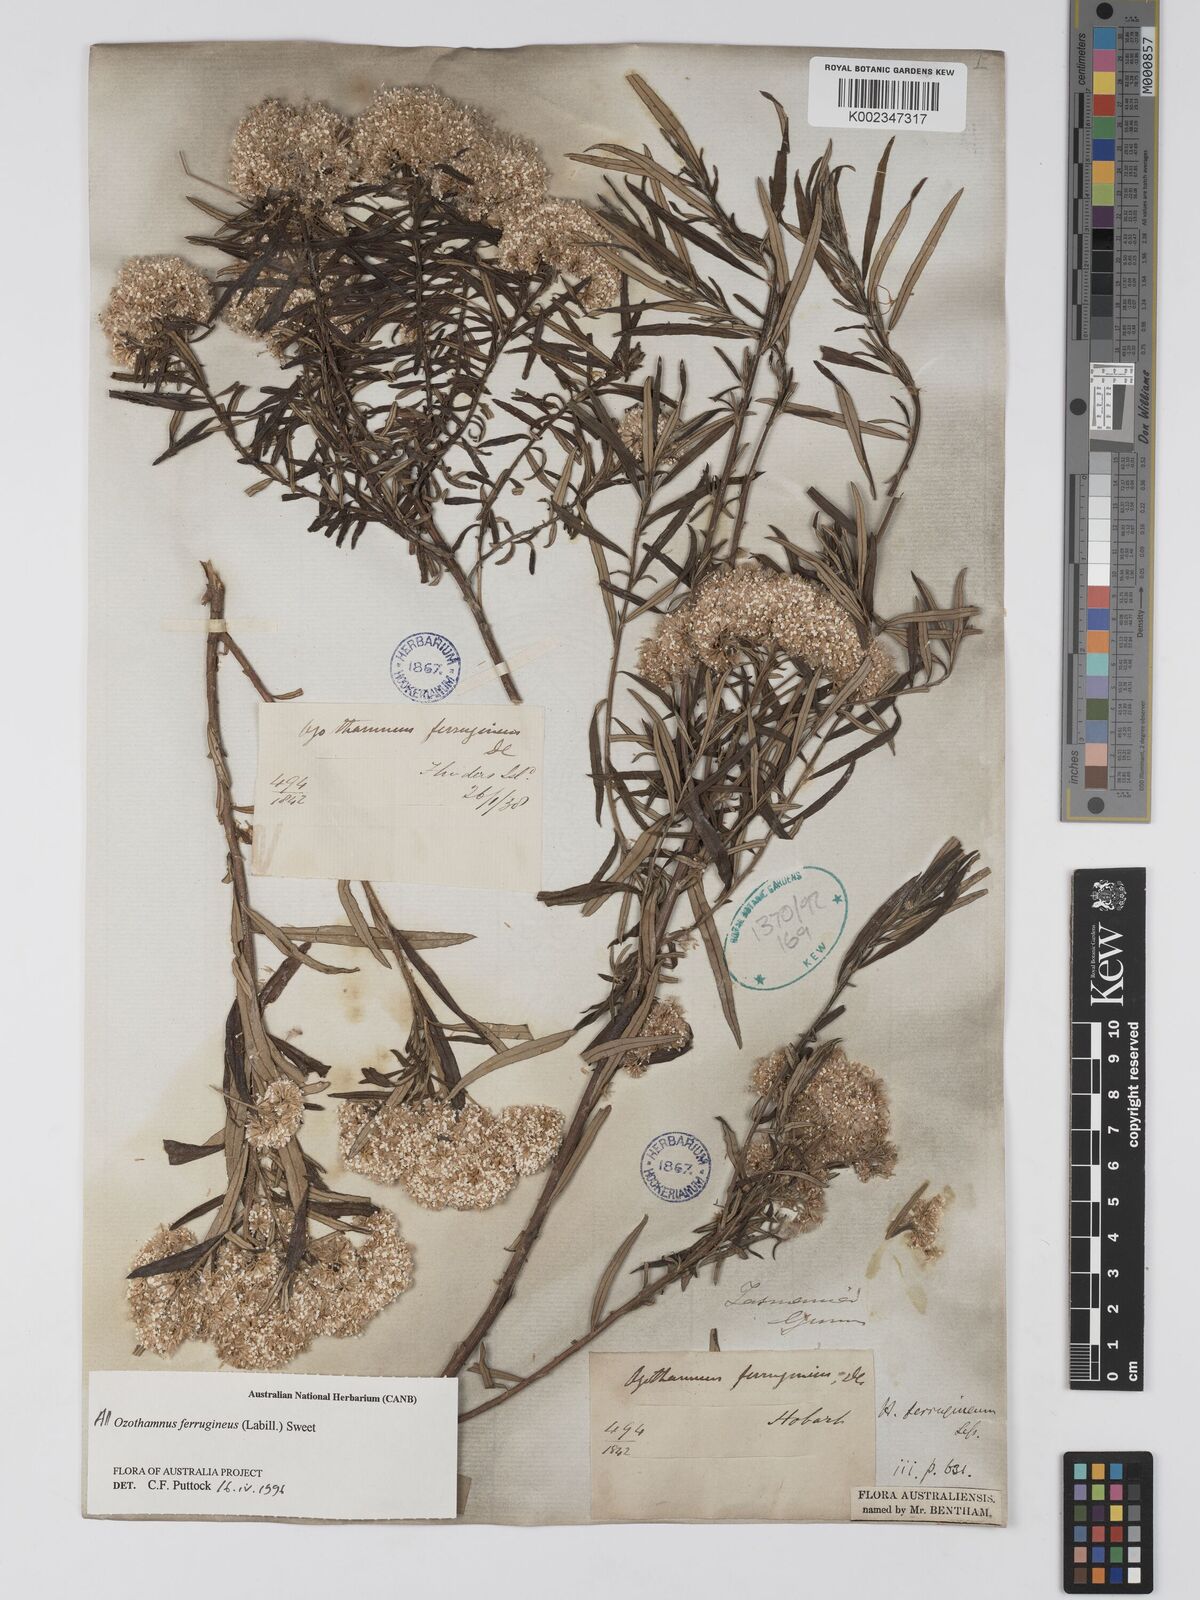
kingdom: Plantae
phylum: Tracheophyta
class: Magnoliopsida
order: Asterales
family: Asteraceae
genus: Ozothamnus
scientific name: Ozothamnus ferrugineus
